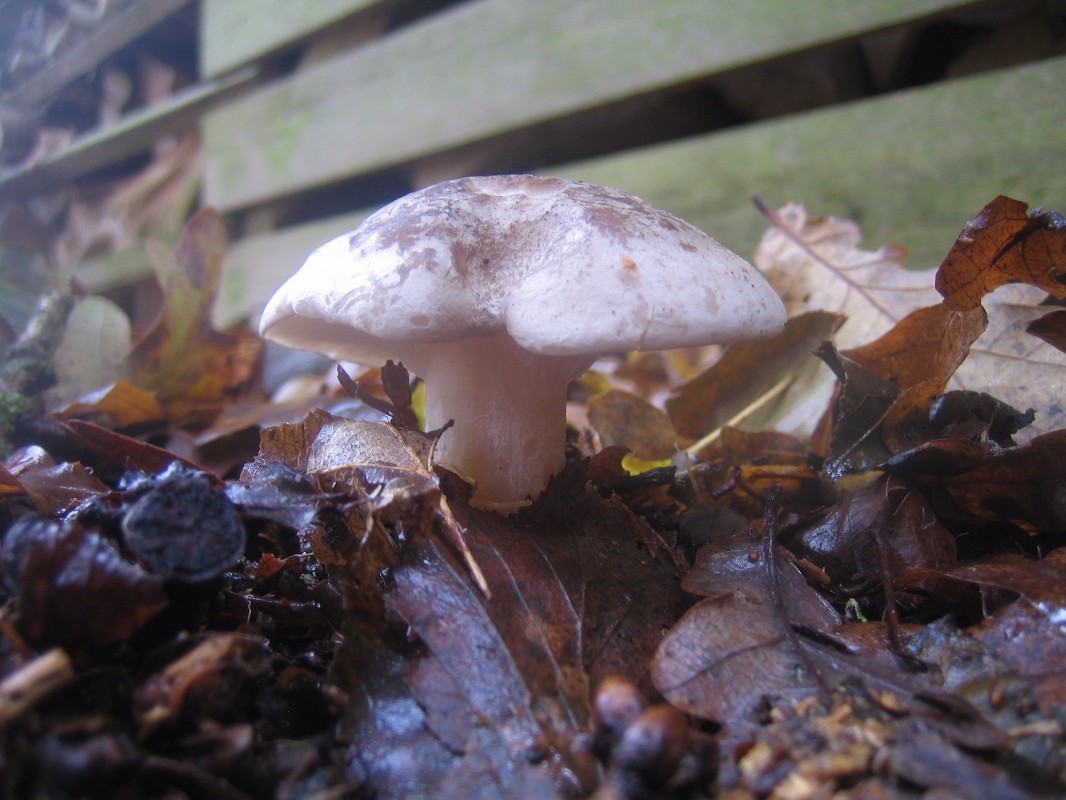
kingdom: Fungi
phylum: Basidiomycota
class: Agaricomycetes
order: Agaricales
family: Tricholomataceae
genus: Clitocybe
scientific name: Clitocybe nebularis
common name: tåge-tragthat
